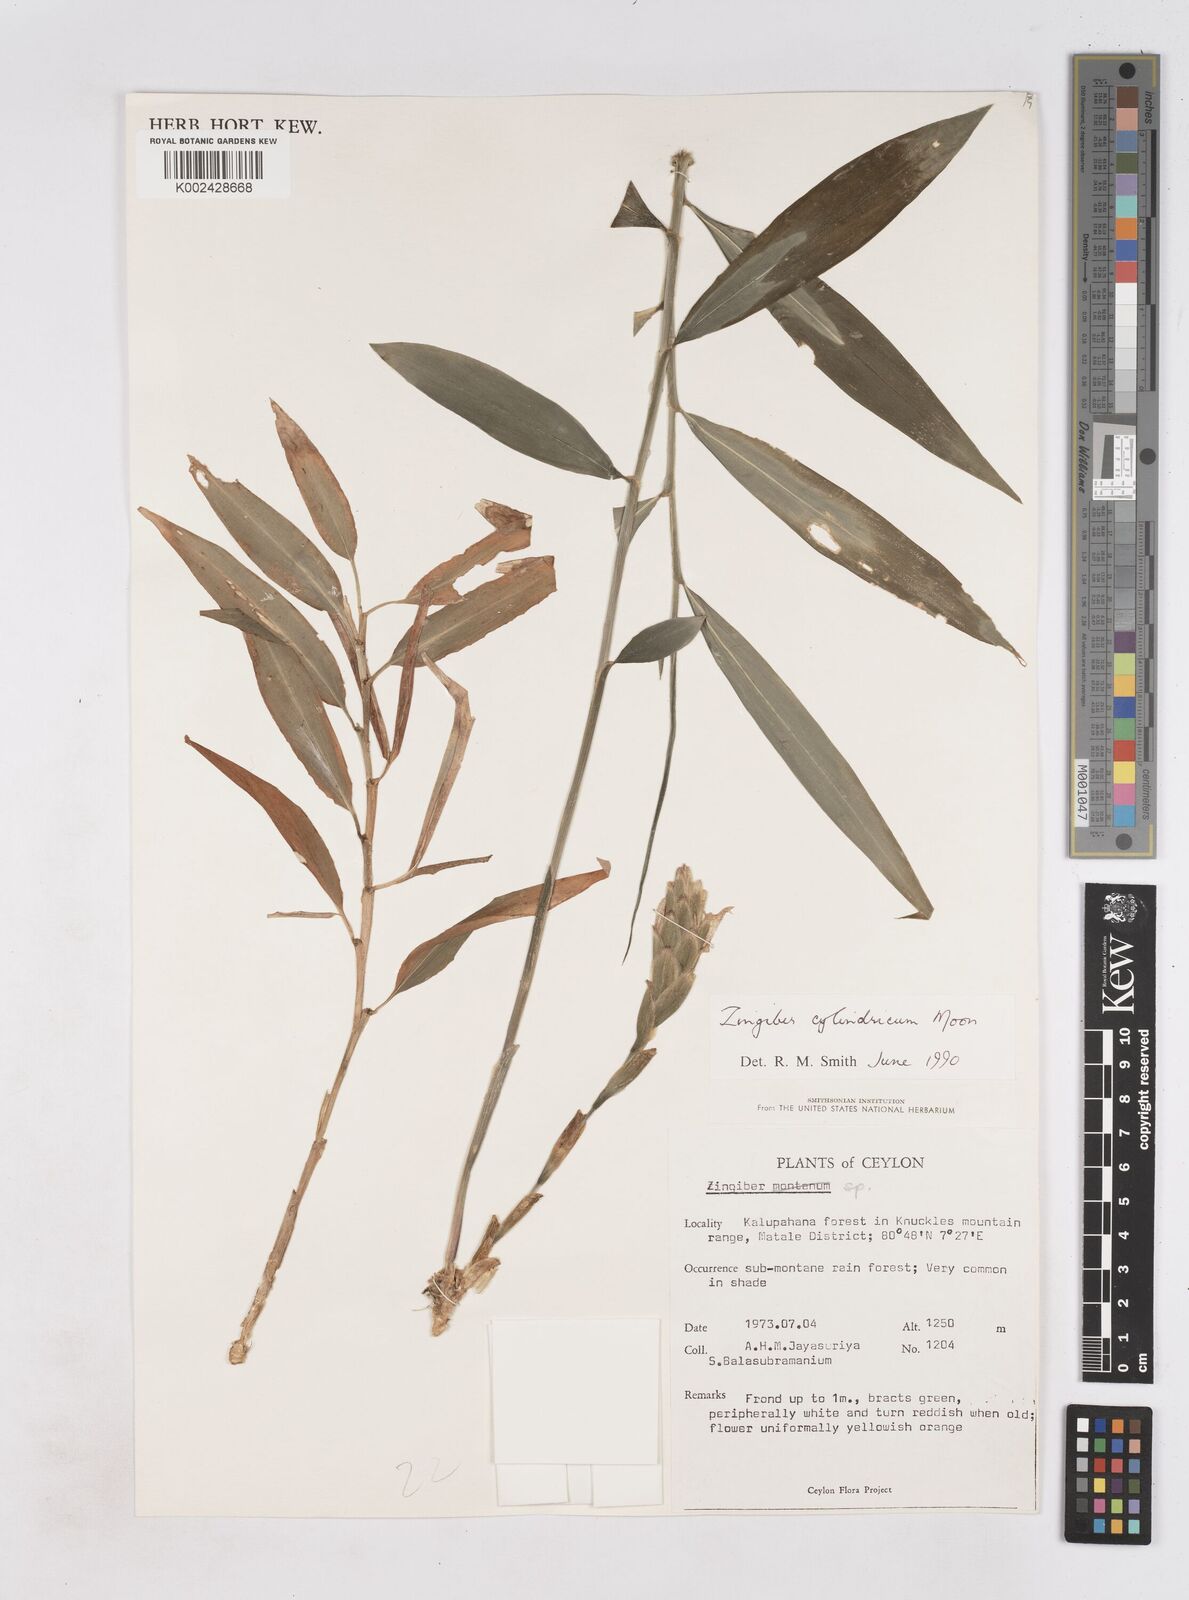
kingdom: Plantae
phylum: Tracheophyta
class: Liliopsida
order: Zingiberales
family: Zingiberaceae
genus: Zingiber
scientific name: Zingiber cylindricum
